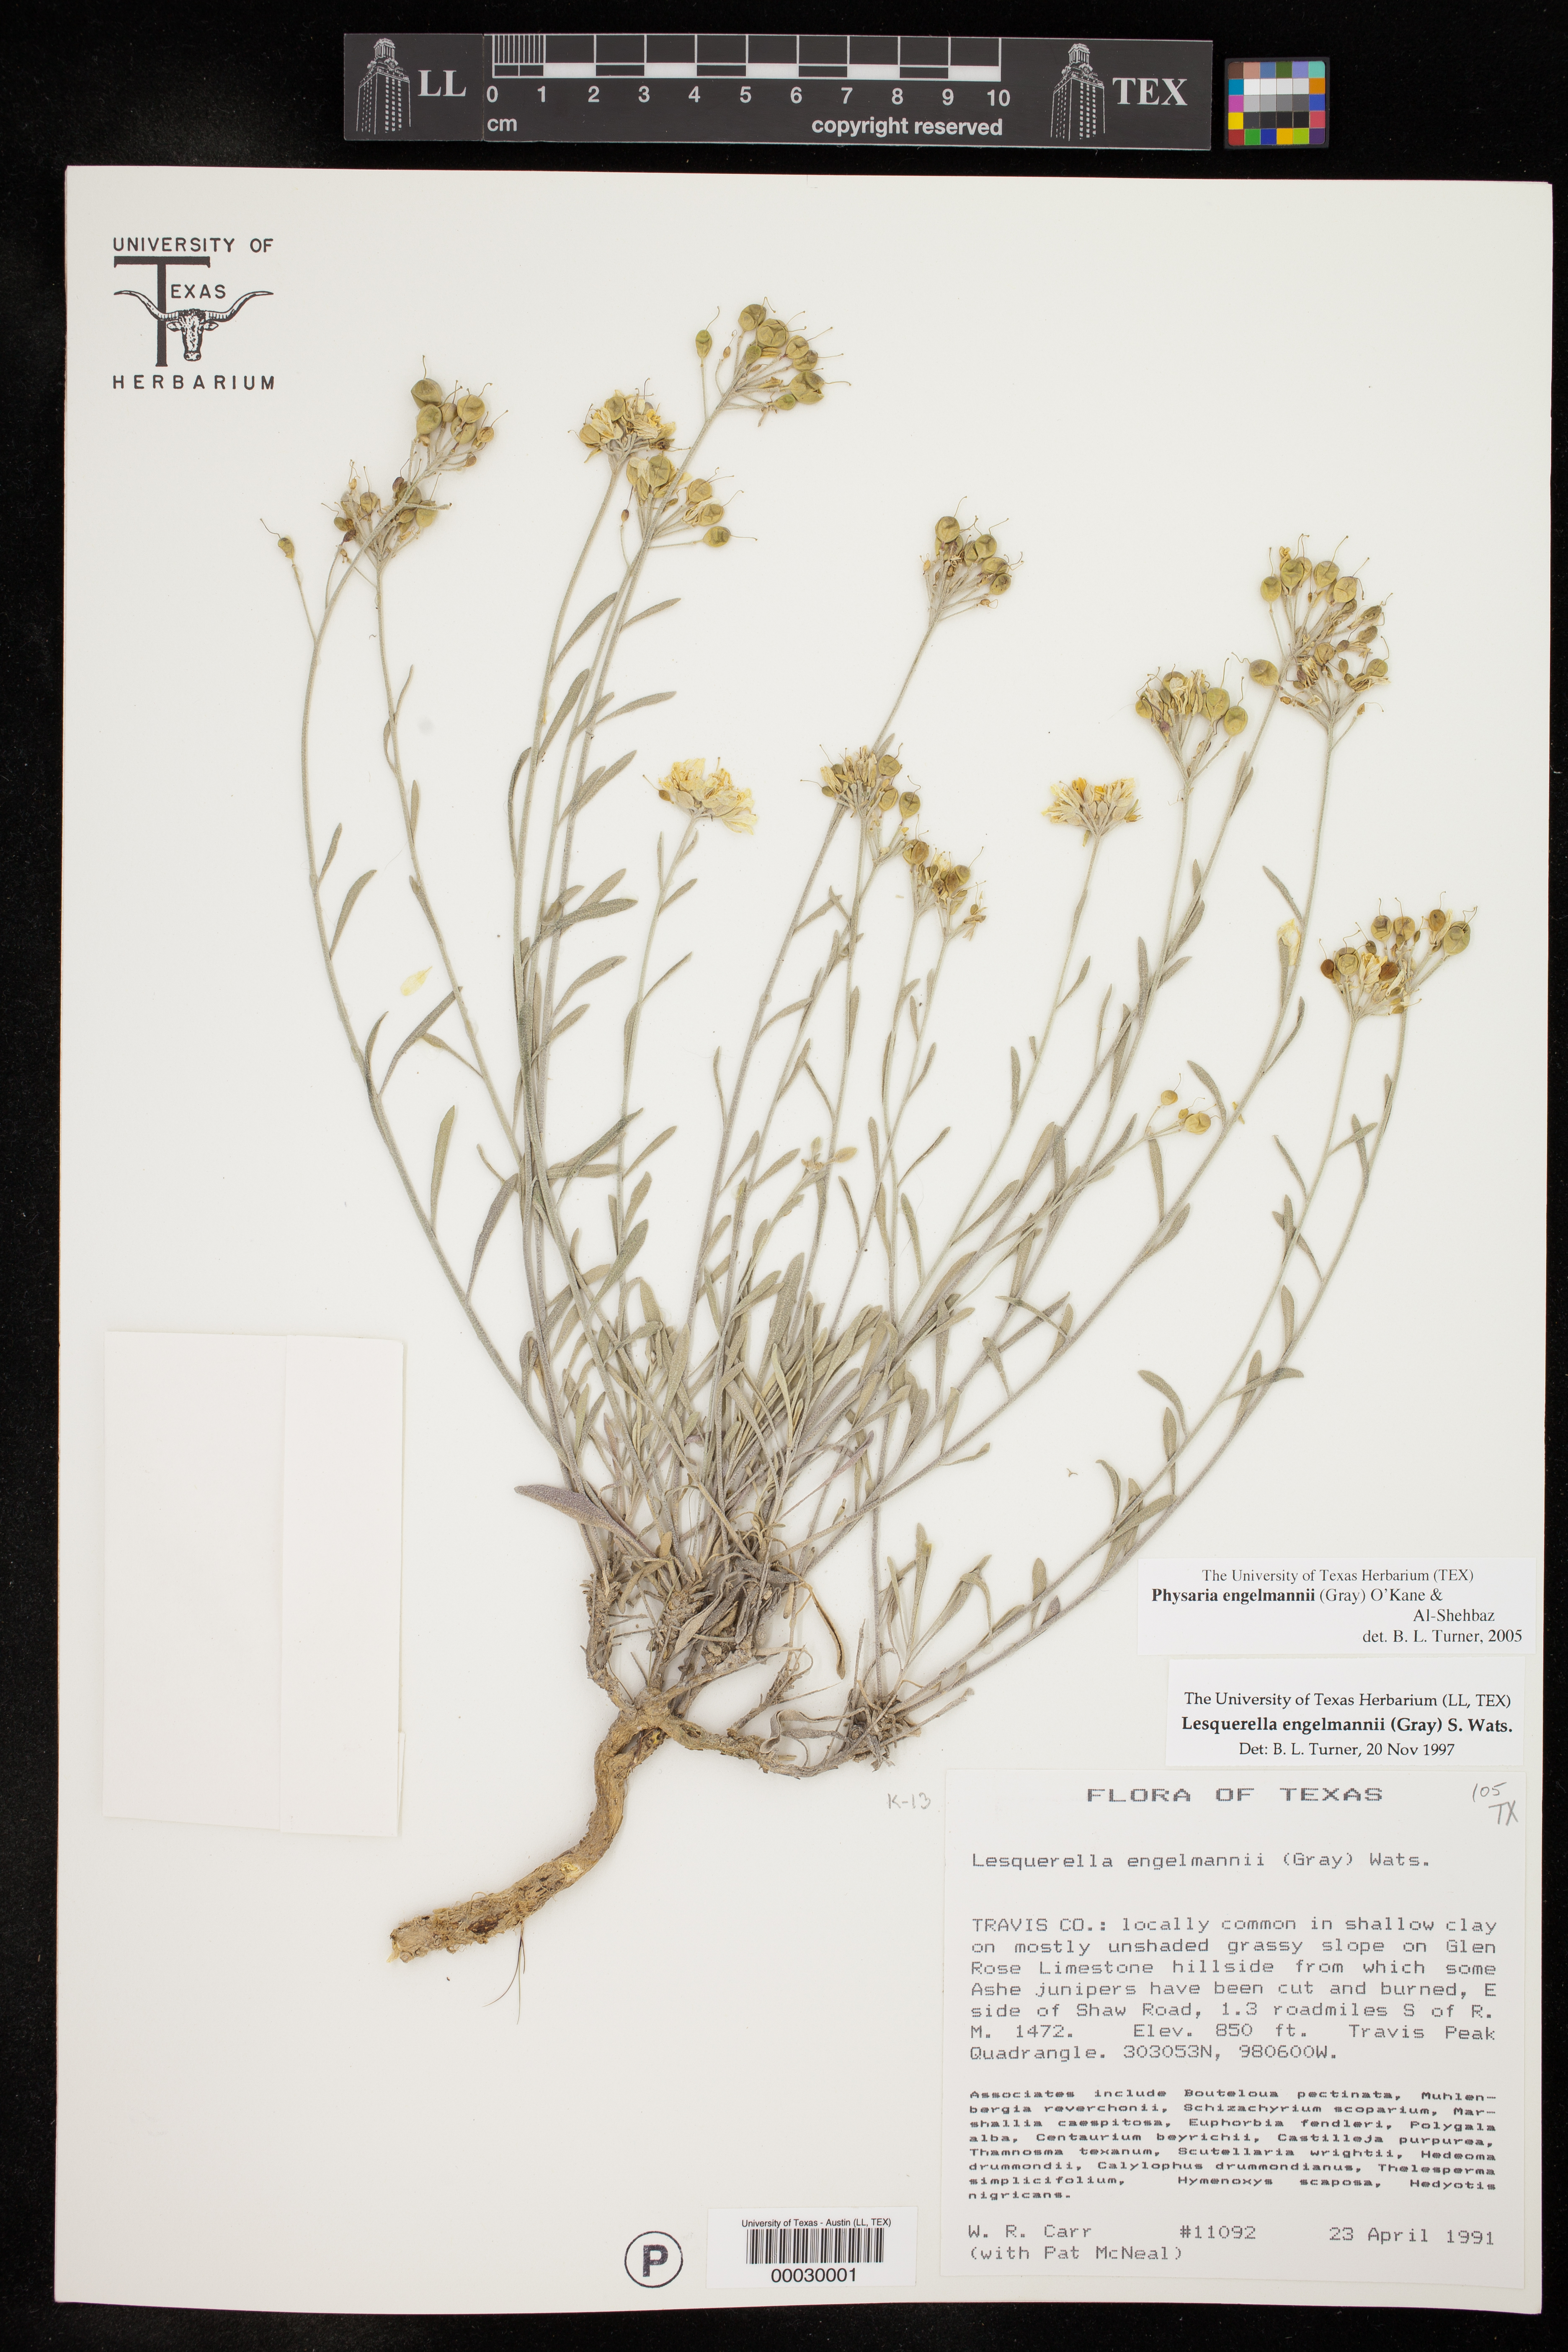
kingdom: Plantae
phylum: Tracheophyta
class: Magnoliopsida
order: Brassicales
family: Brassicaceae
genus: Physaria
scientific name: Physaria engelmannii
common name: Engelmann's bladderpod
